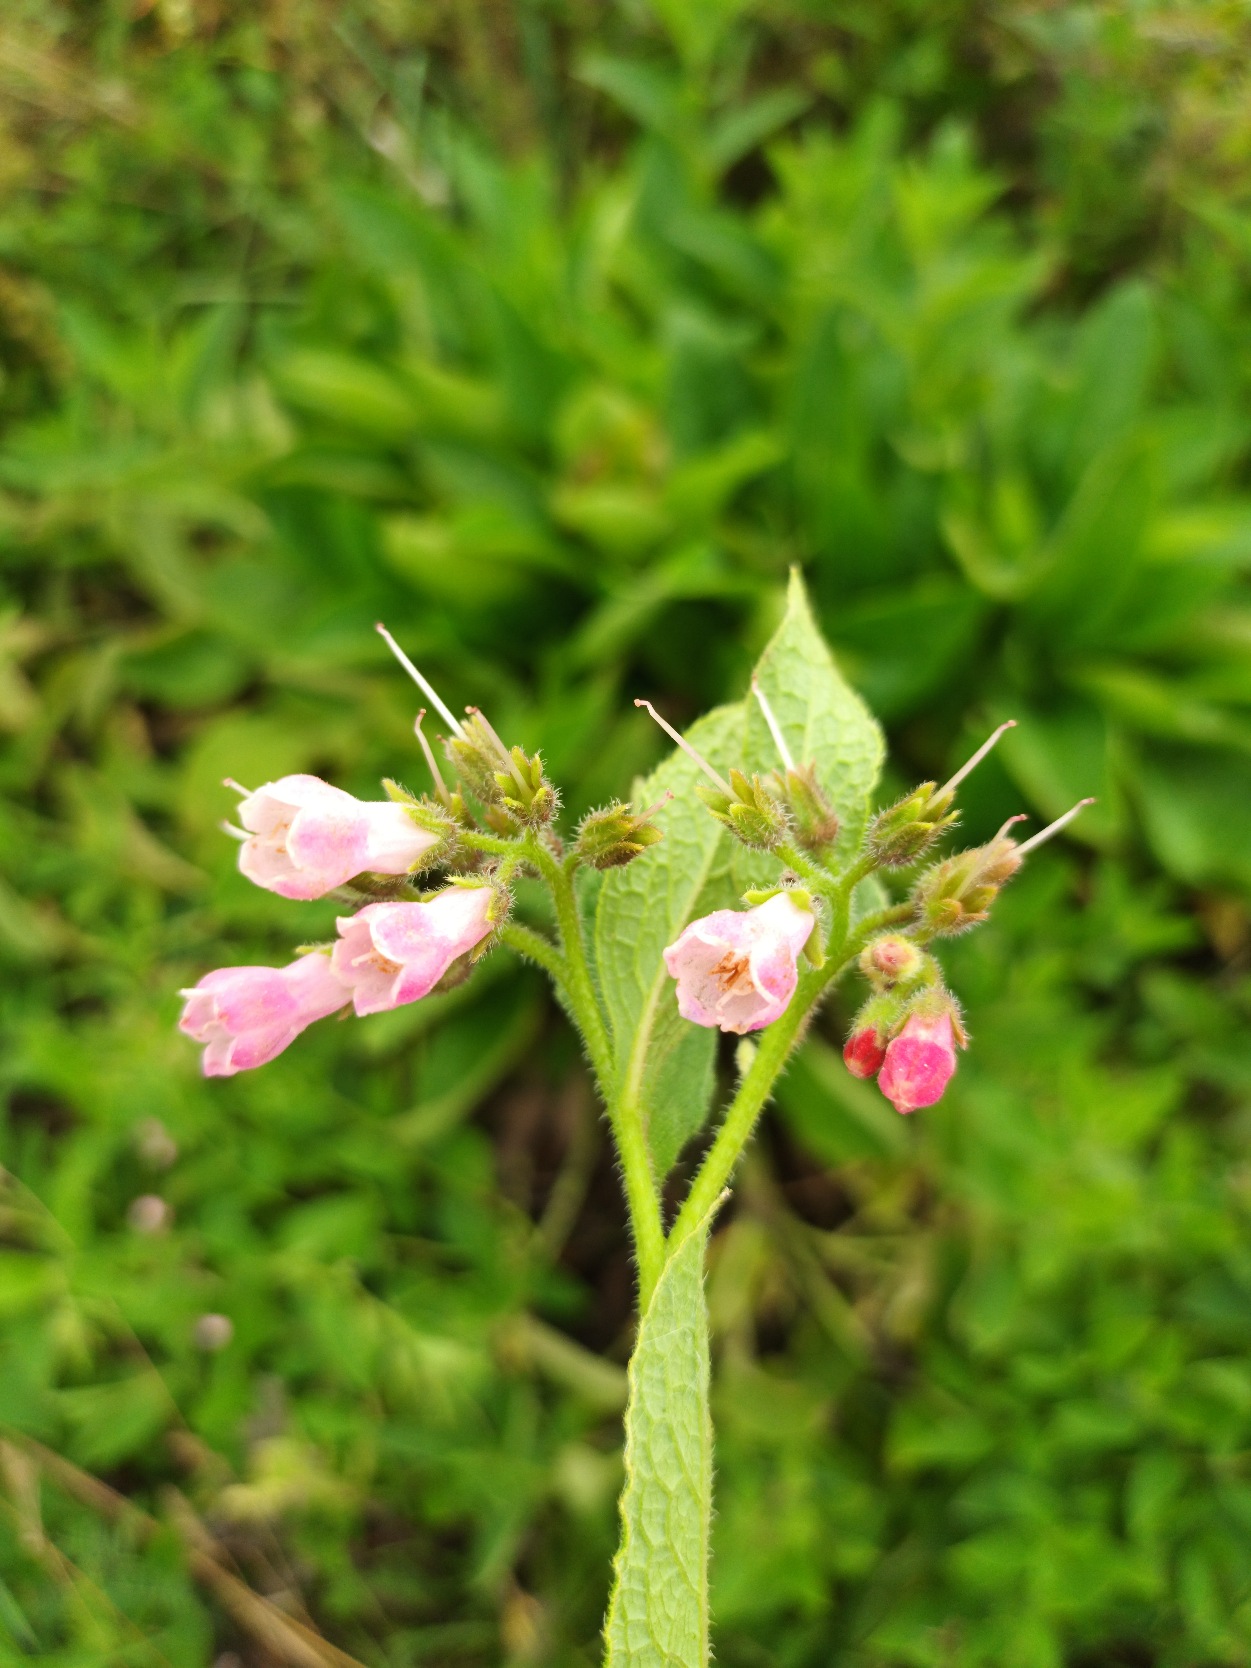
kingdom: Plantae
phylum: Tracheophyta
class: Magnoliopsida
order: Boraginales
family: Boraginaceae
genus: Symphytum
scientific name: Symphytum uplandicum
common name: Foder-kulsukker
